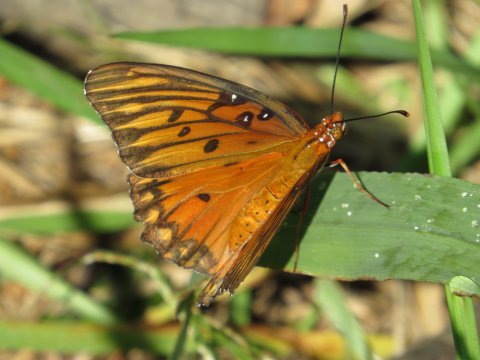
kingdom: Animalia
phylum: Arthropoda
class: Insecta
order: Lepidoptera
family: Nymphalidae
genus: Dione
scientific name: Dione vanillae
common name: Gulf Fritillary
